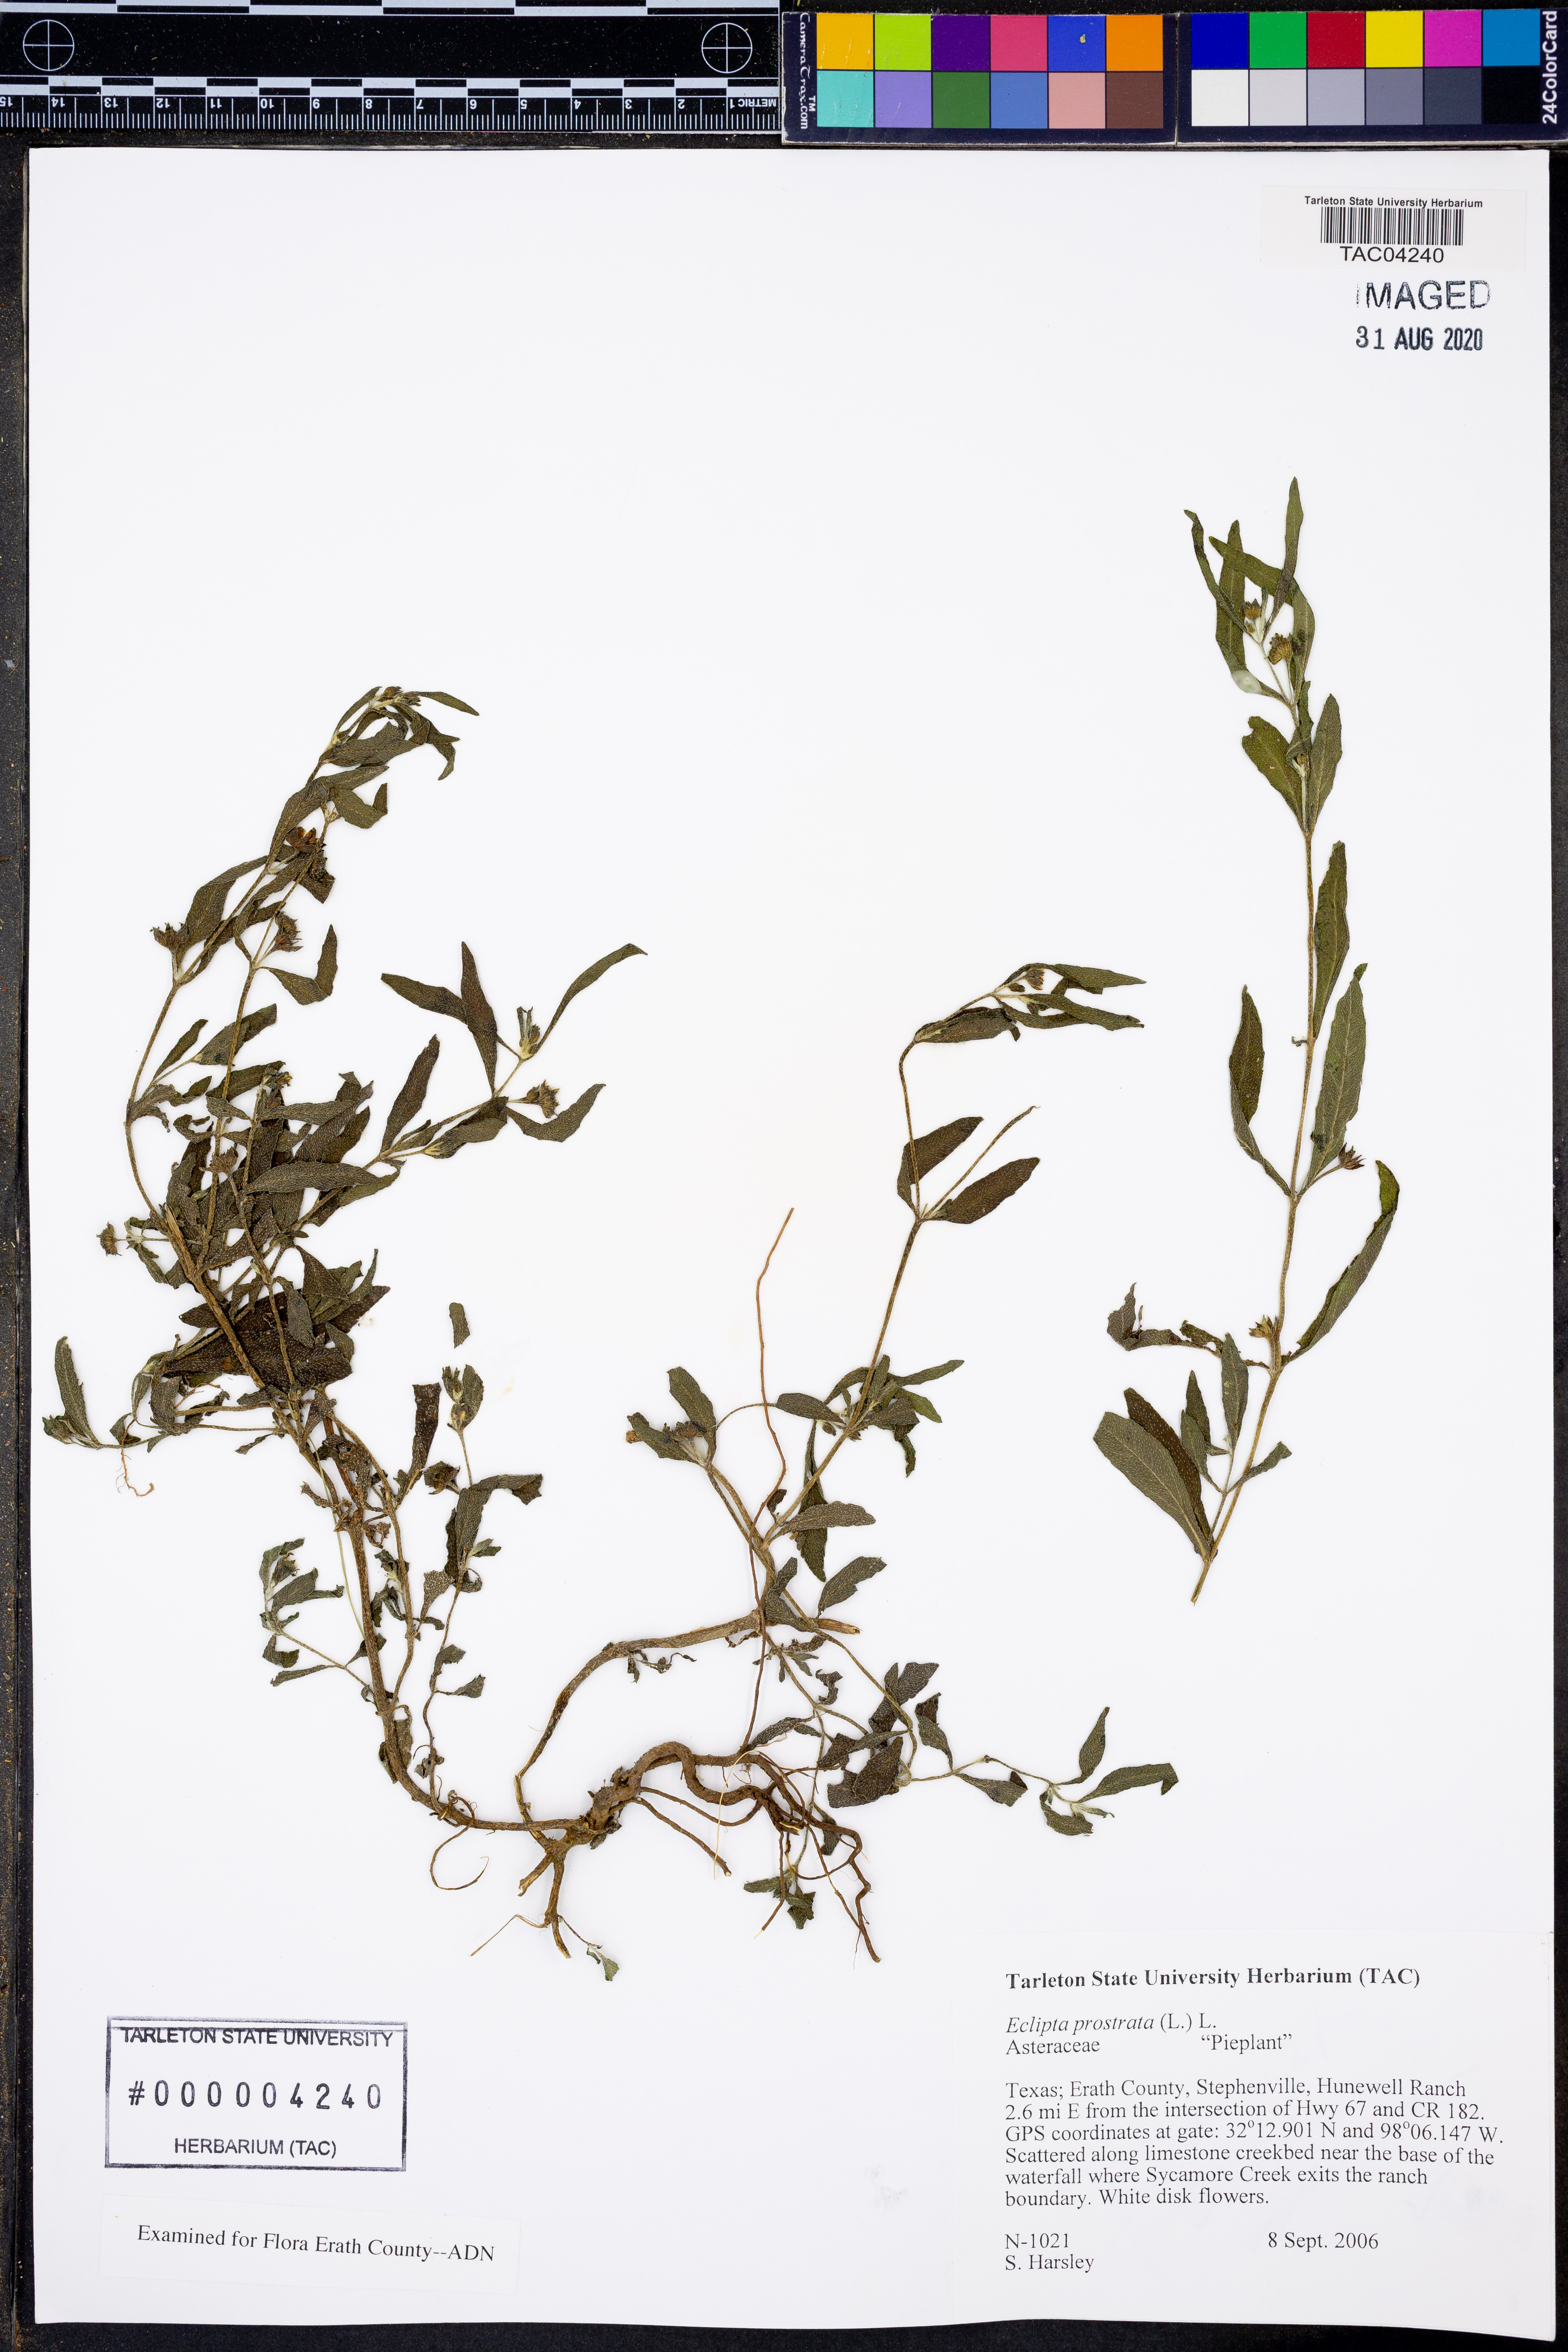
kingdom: Plantae
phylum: Tracheophyta
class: Magnoliopsida
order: Asterales
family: Asteraceae
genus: Eclipta
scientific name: Eclipta prostrata
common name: False daisy
